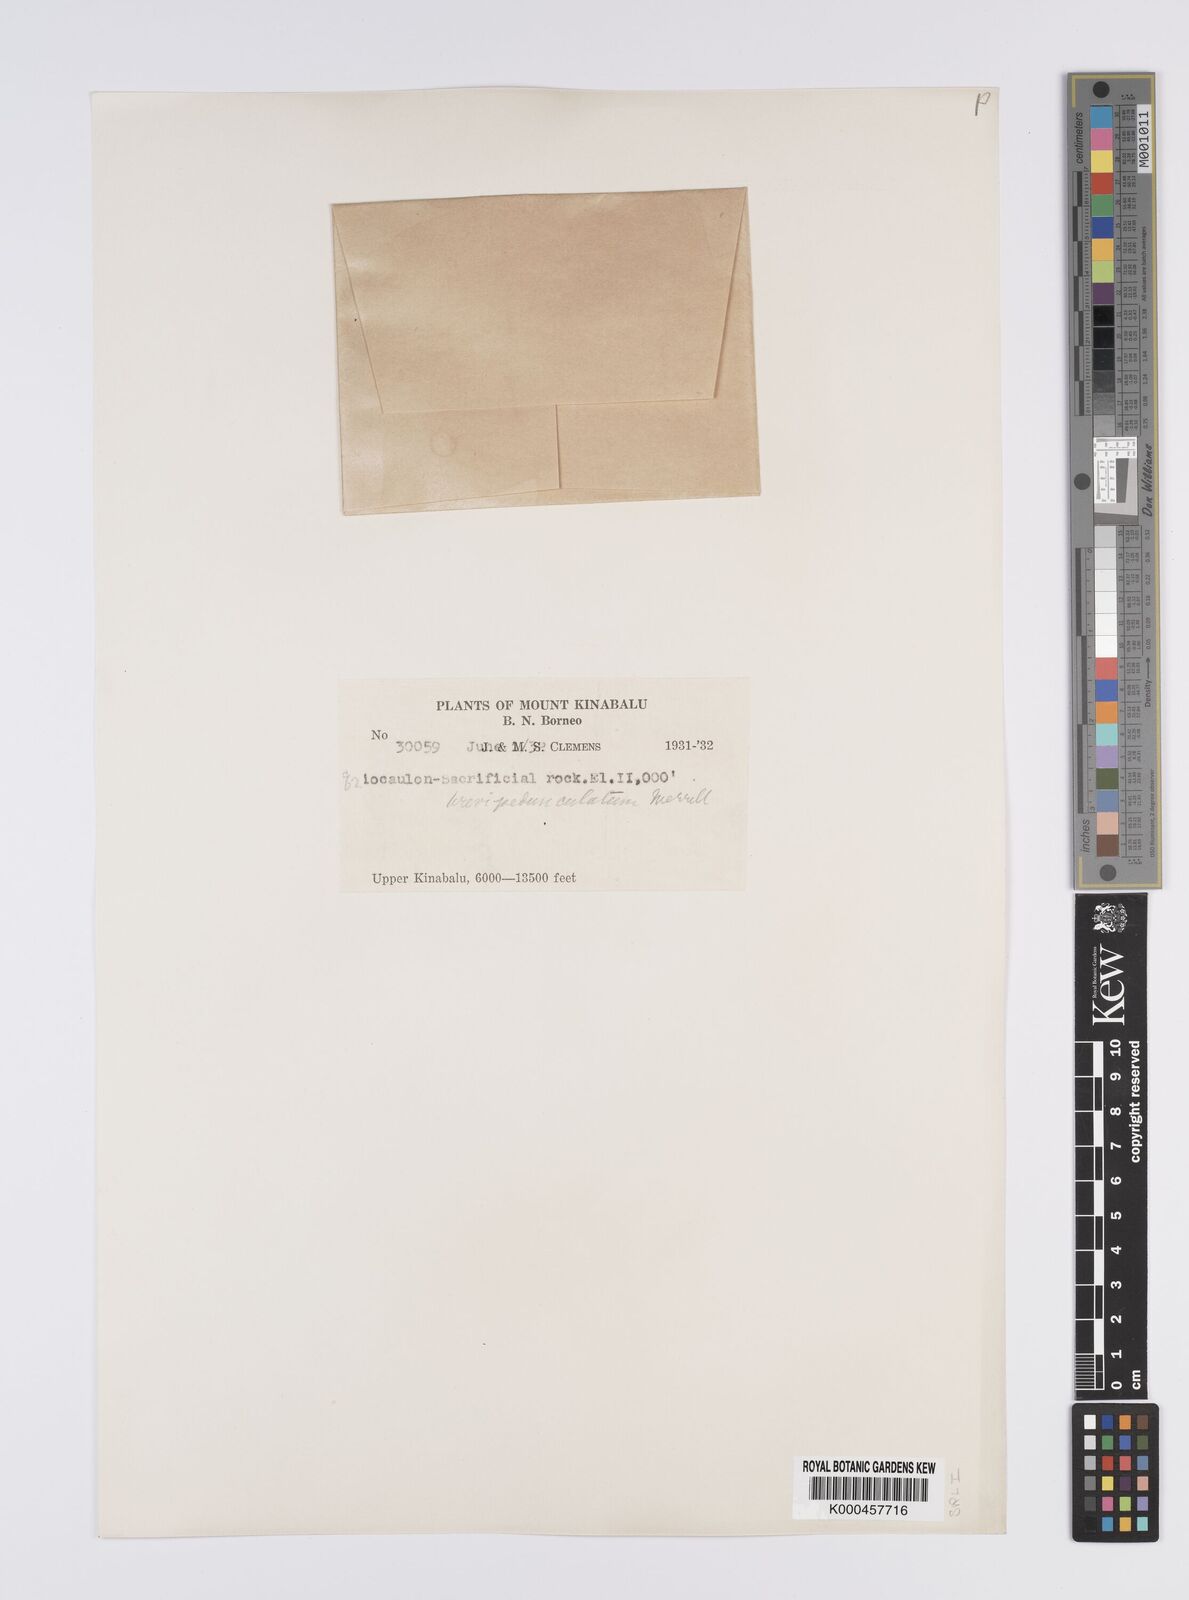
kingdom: Plantae
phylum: Tracheophyta
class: Liliopsida
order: Poales
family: Eriocaulaceae
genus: Eriocaulon
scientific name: Eriocaulon brevipedunculatum
